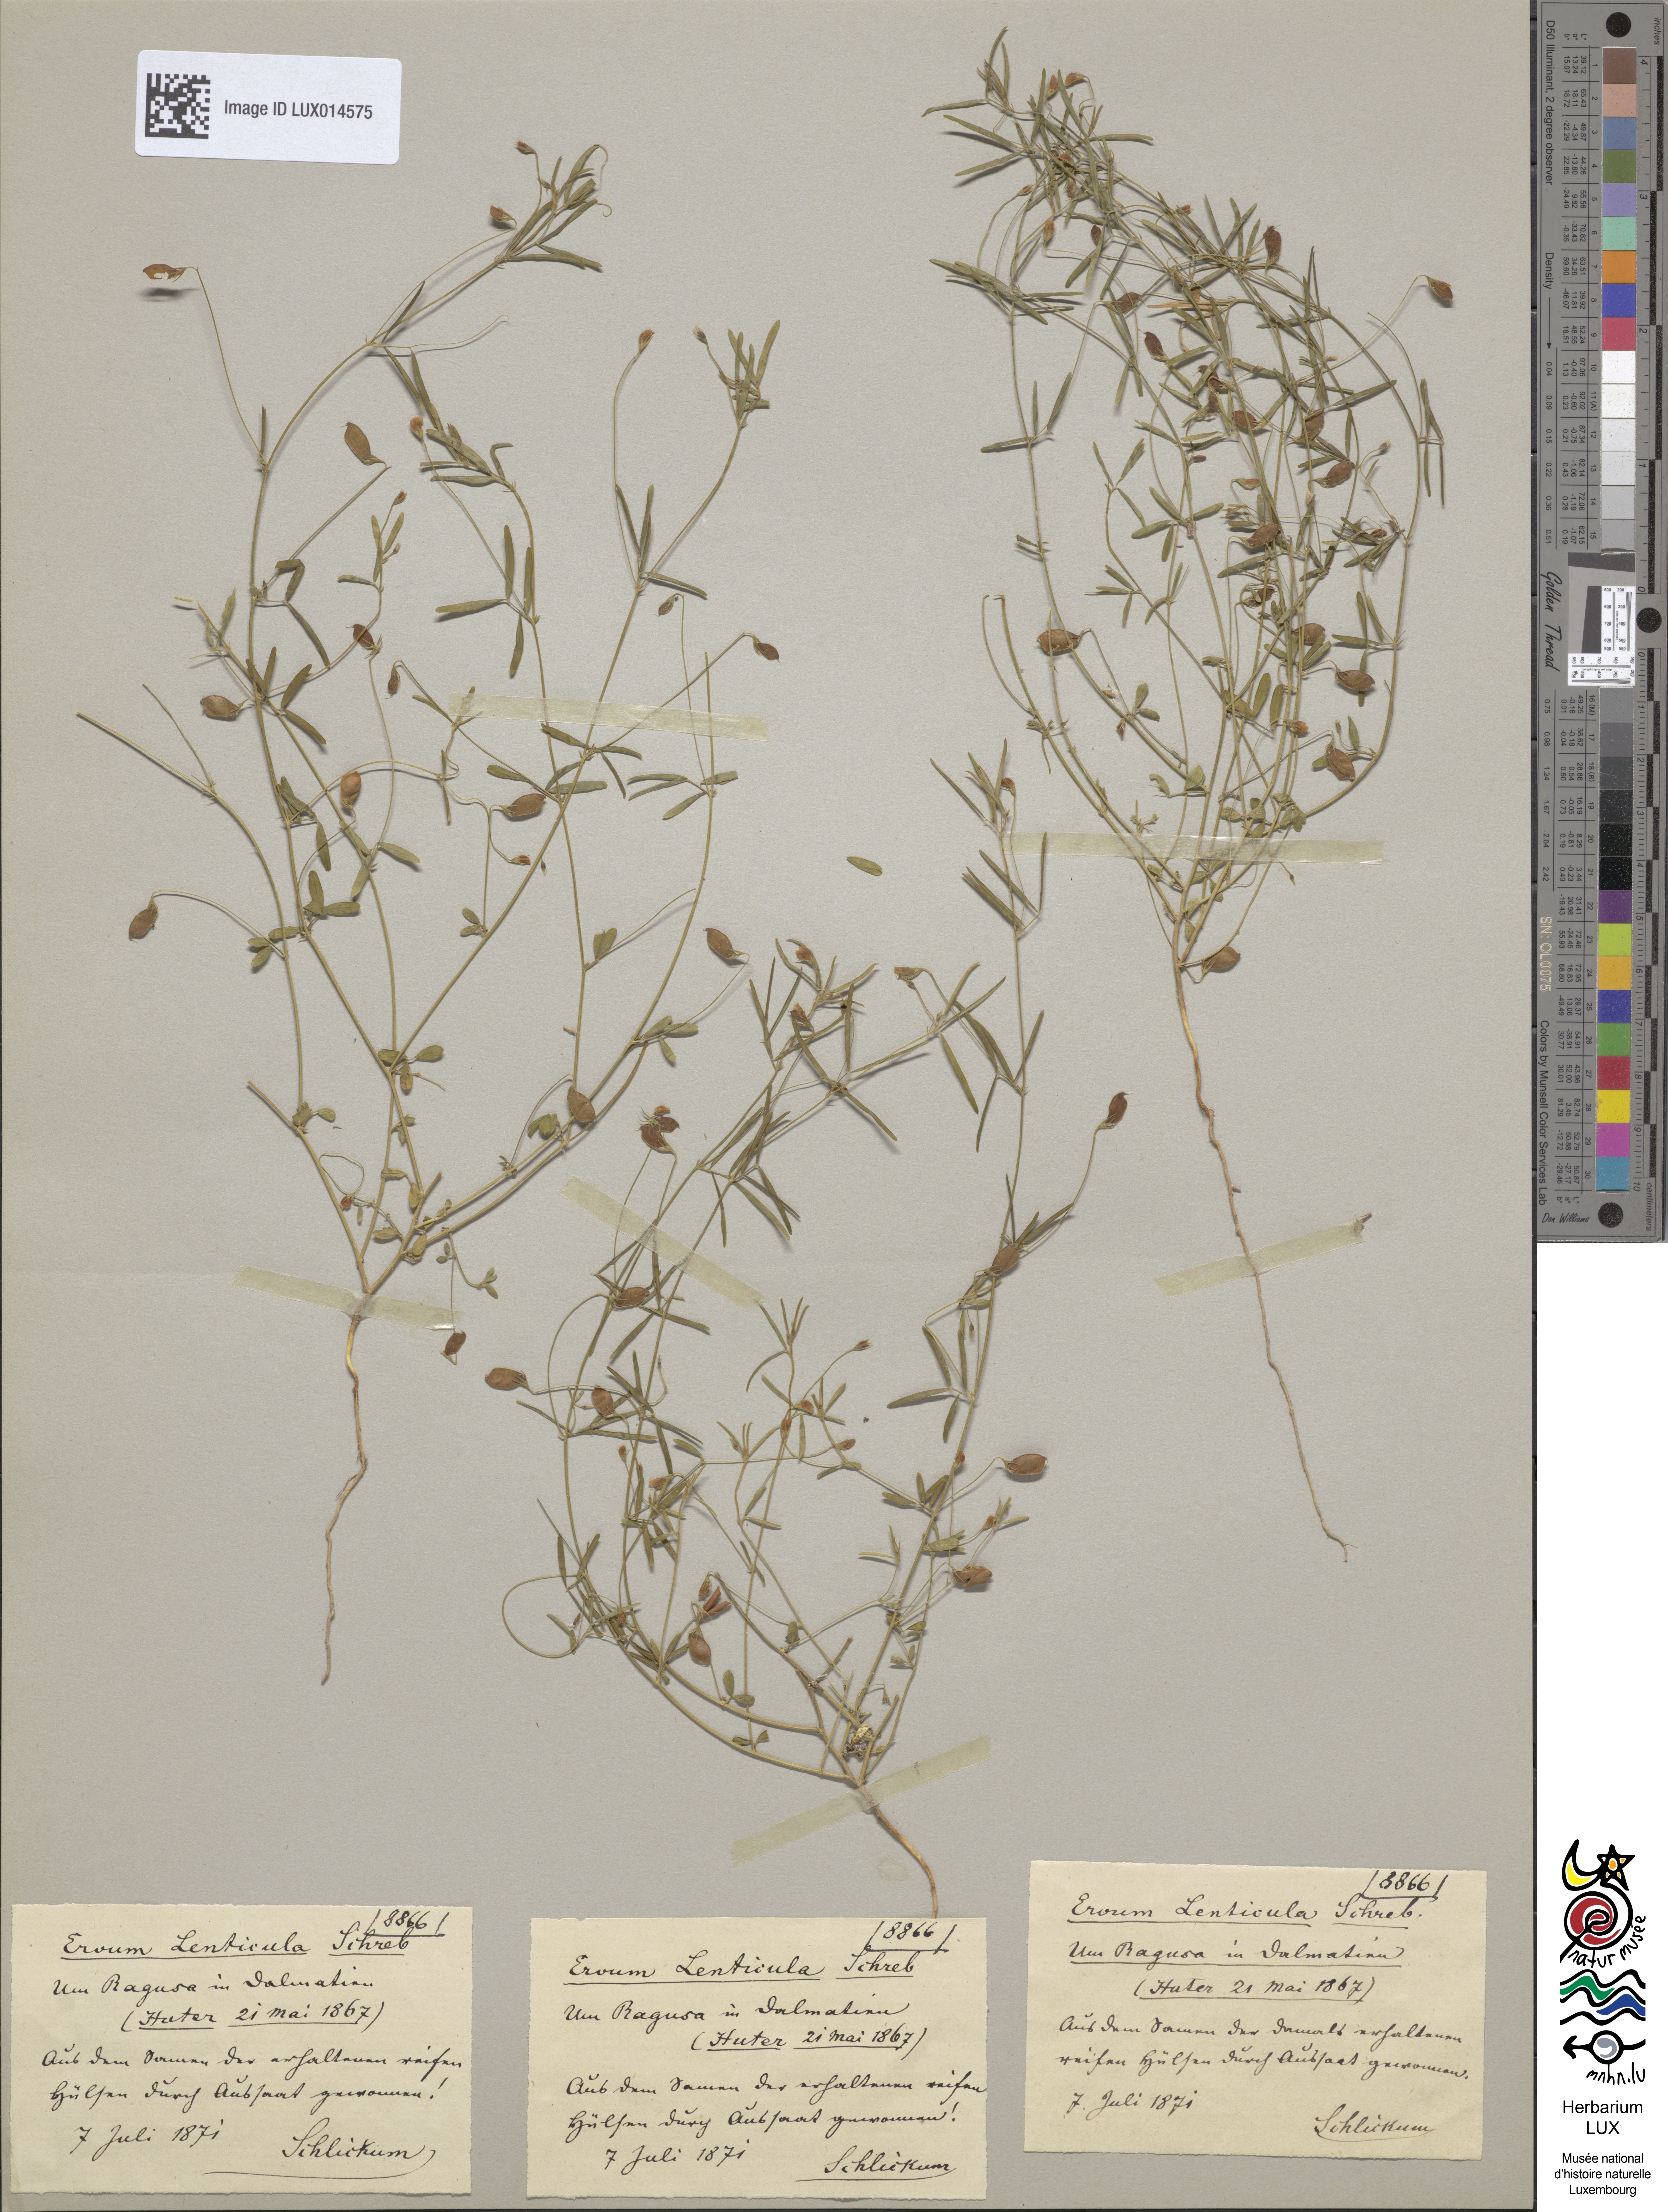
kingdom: Plantae
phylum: Tracheophyta
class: Magnoliopsida
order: Fabales
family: Fabaceae
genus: Vicia
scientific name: Vicia lenticula
